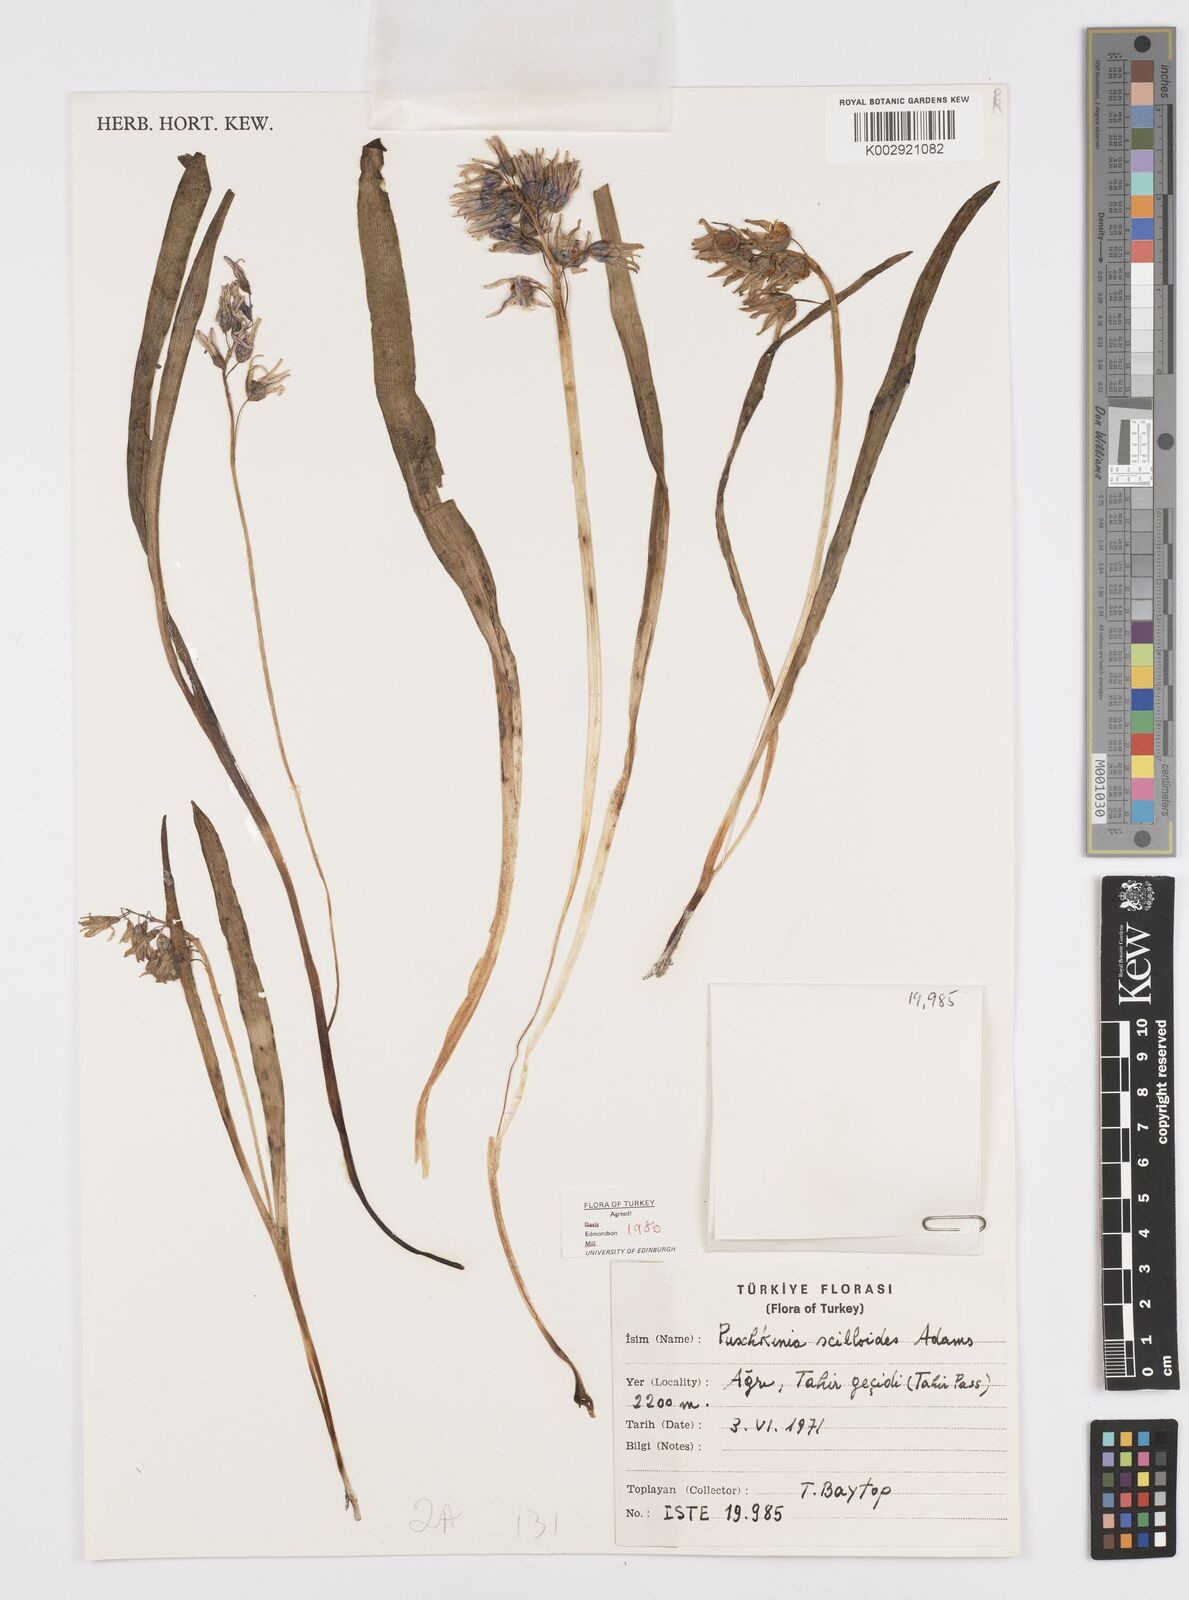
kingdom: Plantae
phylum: Tracheophyta
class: Liliopsida
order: Asparagales
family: Asparagaceae
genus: Puschkinia
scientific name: Puschkinia scilloides
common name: Striped squill
